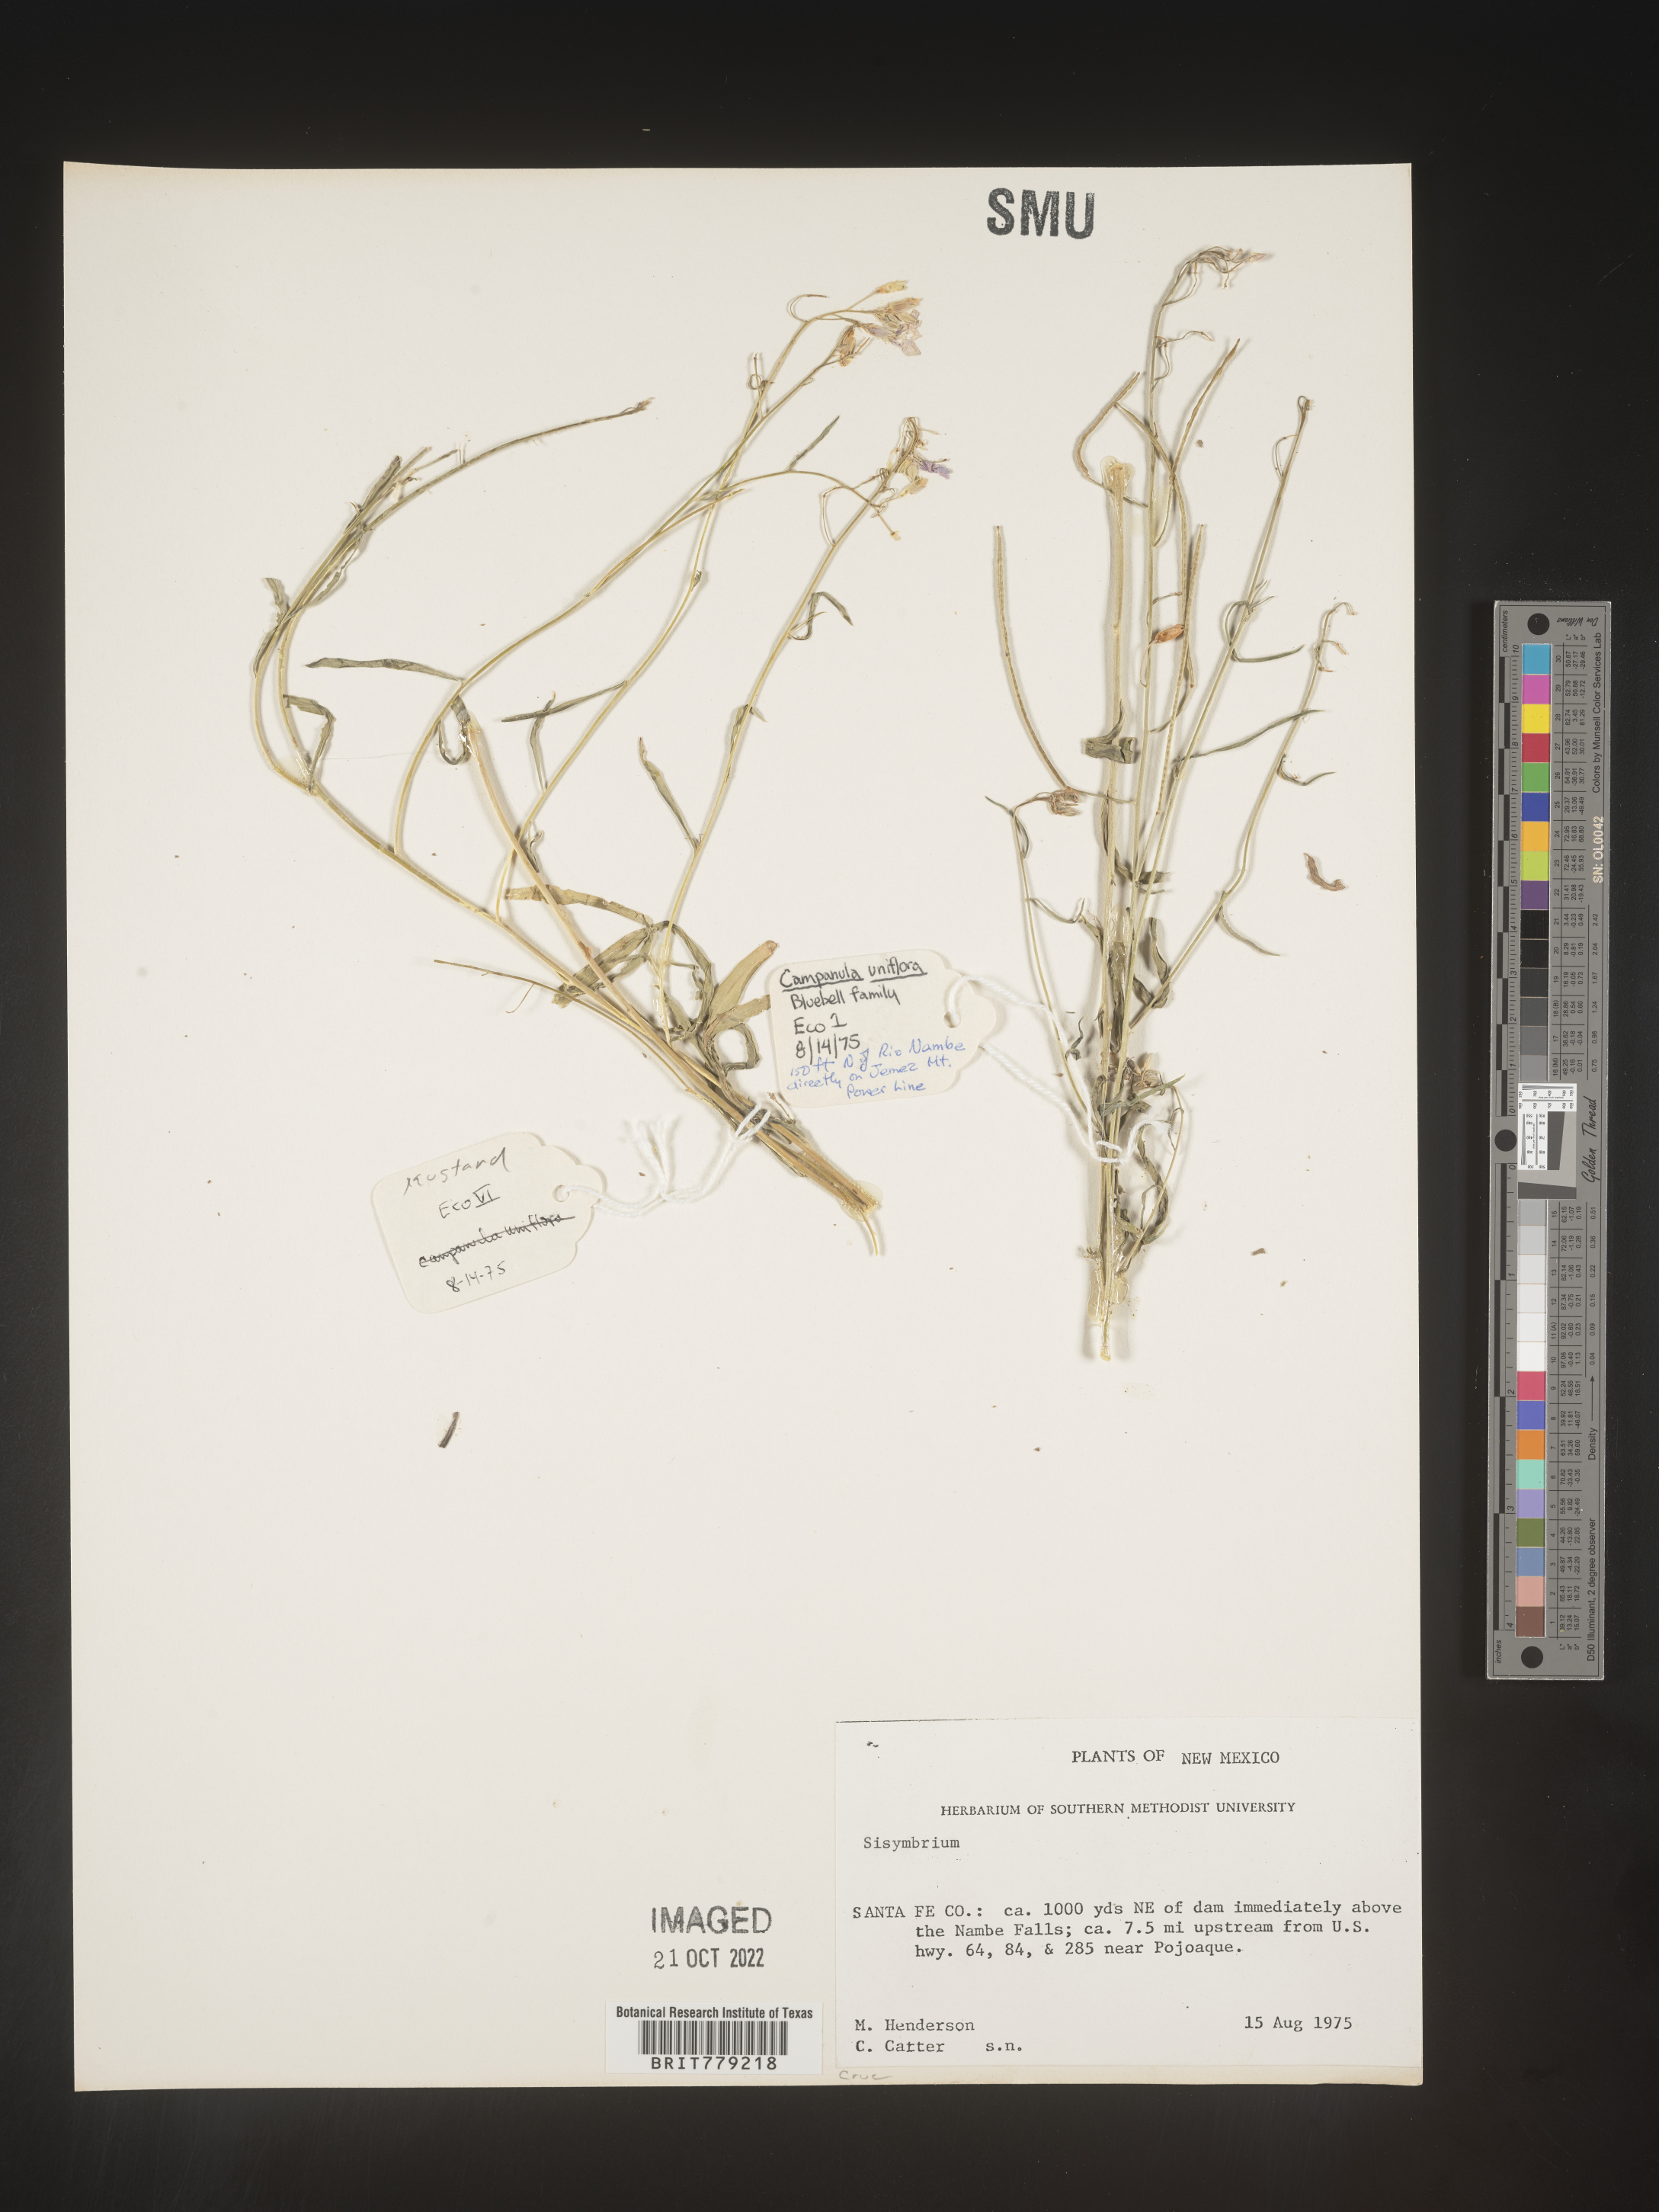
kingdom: Plantae
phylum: Tracheophyta
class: Magnoliopsida
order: Brassicales
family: Brassicaceae
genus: Sisymbrium
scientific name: Sisymbrium orientale
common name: Eastern rocket
